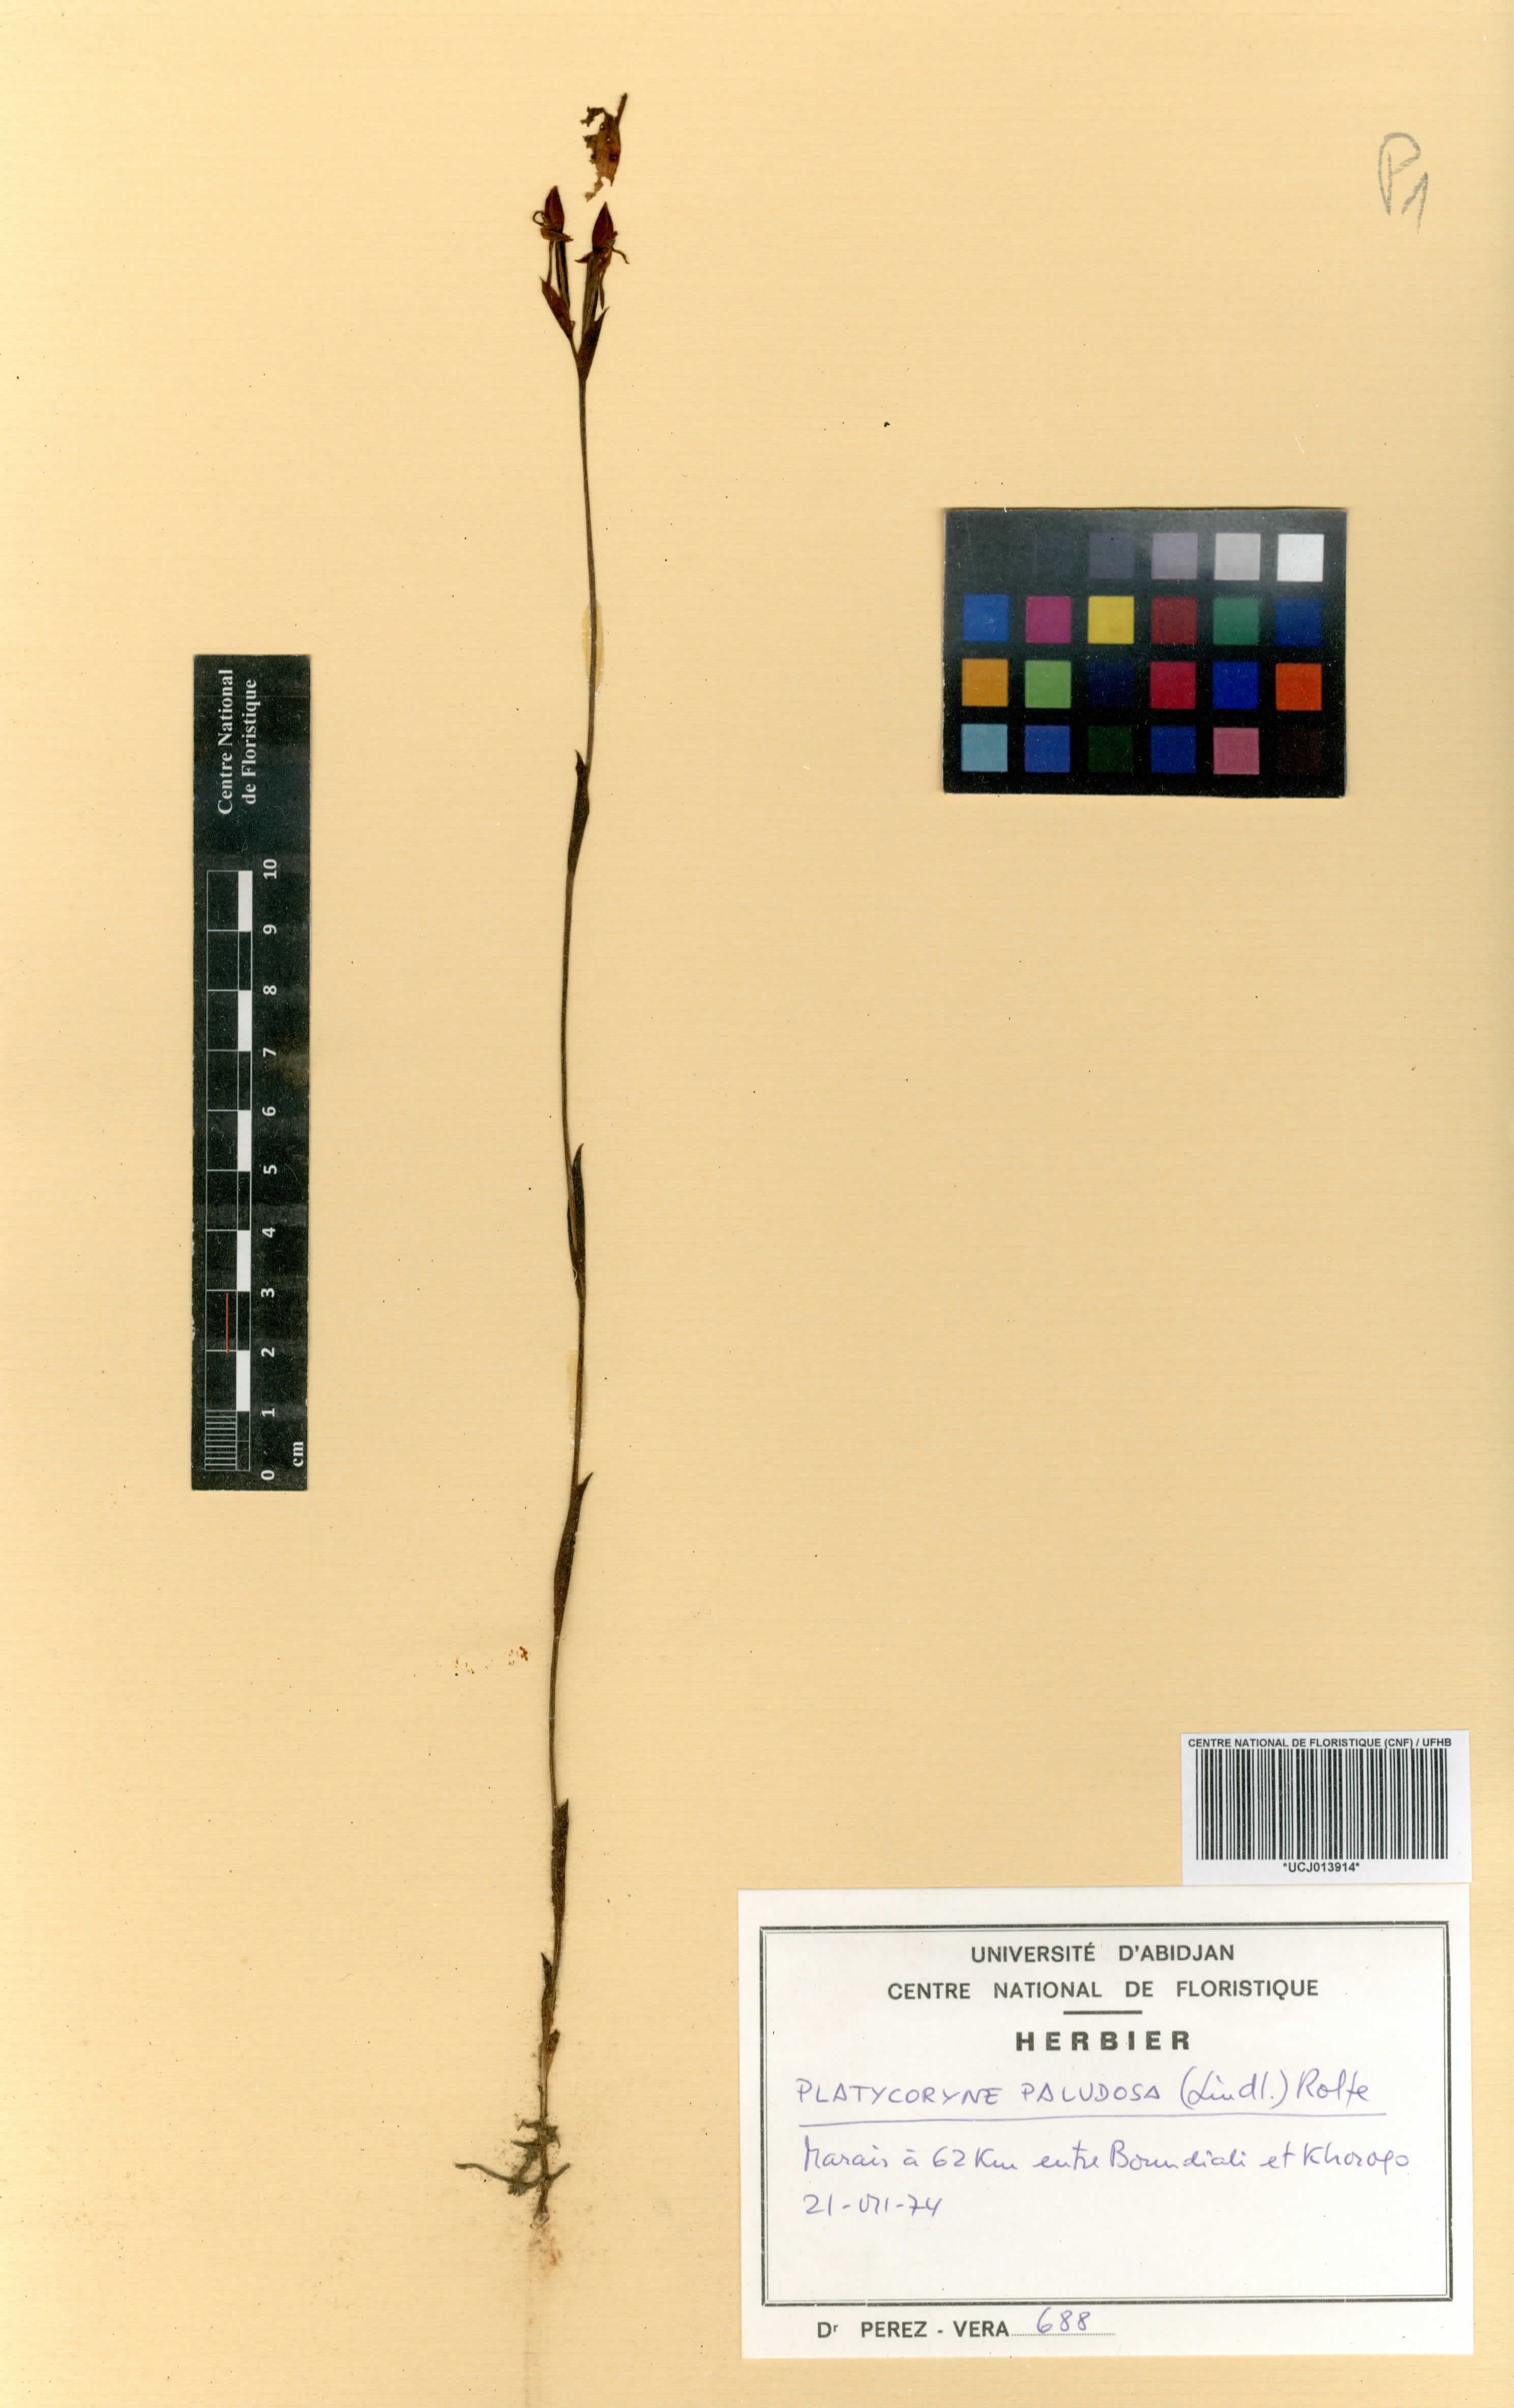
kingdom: Plantae
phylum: Tracheophyta
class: Liliopsida
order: Asparagales
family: Orchidaceae
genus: Platycoryne
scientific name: Platycoryne paludosa
